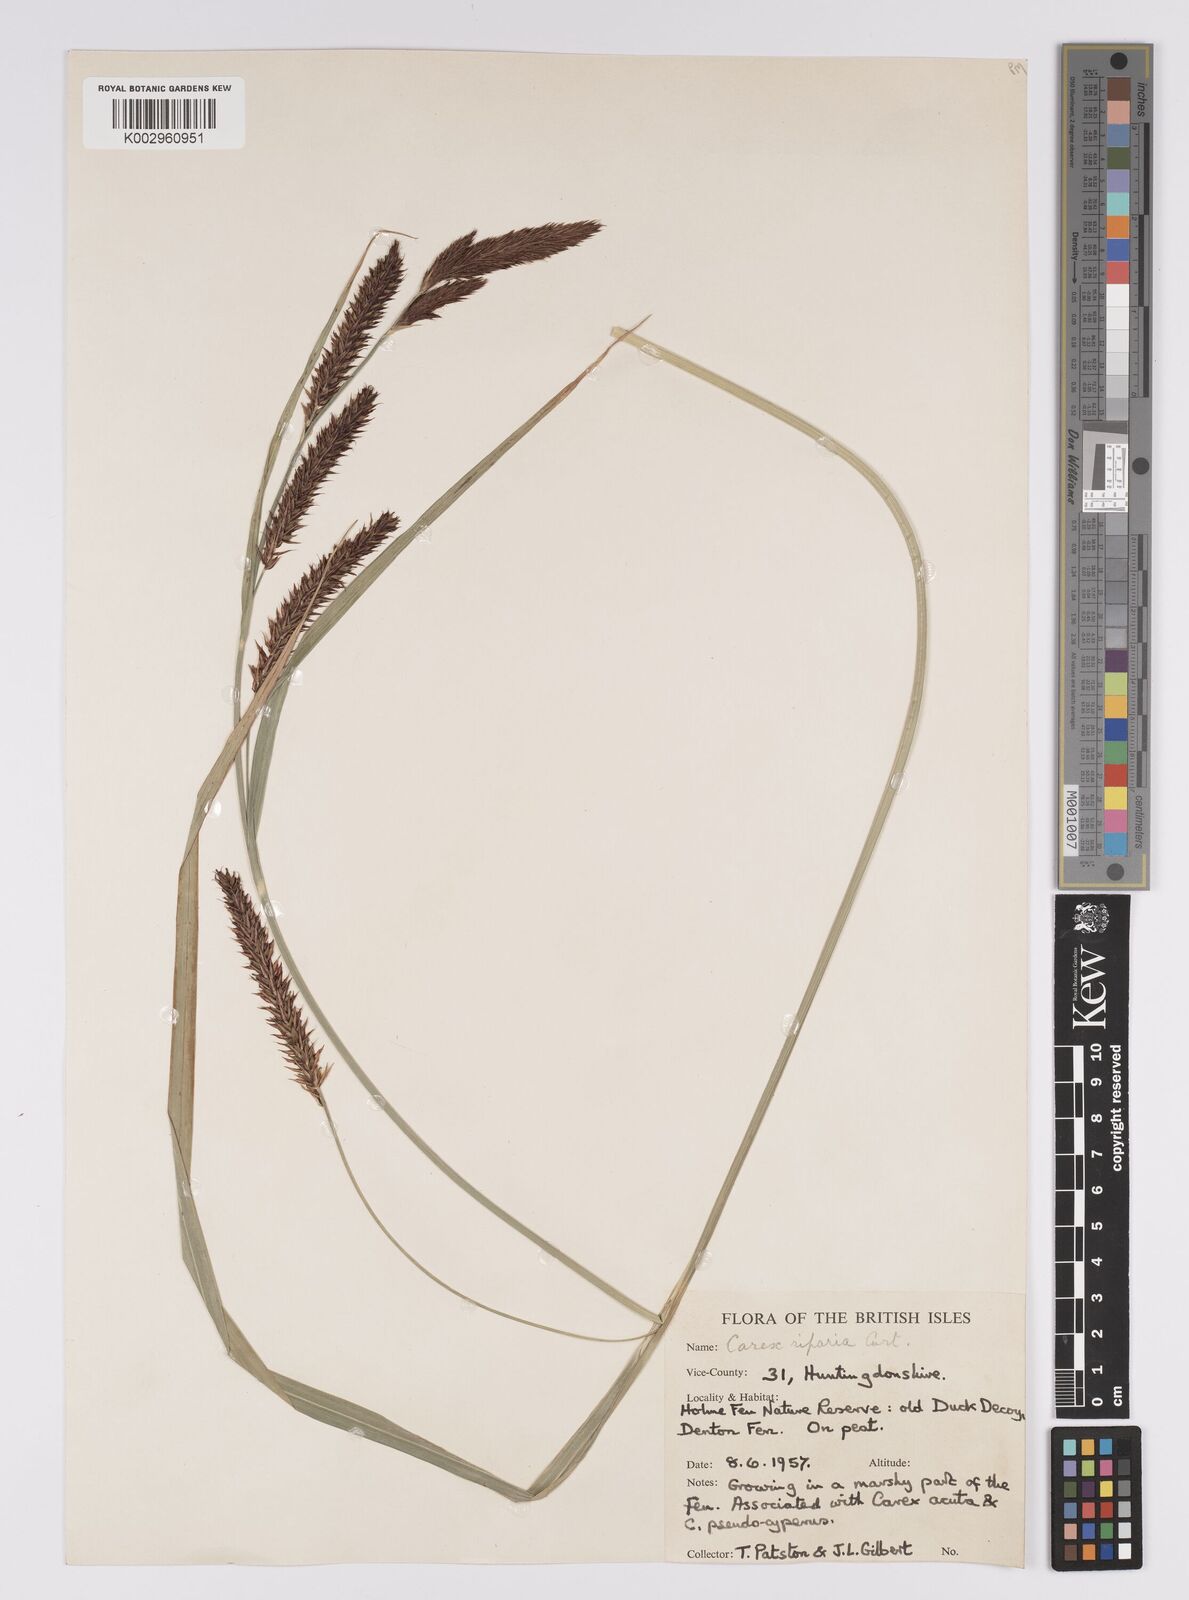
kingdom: Plantae
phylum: Tracheophyta
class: Liliopsida
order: Poales
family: Cyperaceae
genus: Carex
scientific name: Carex riparia
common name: Greater pond-sedge
